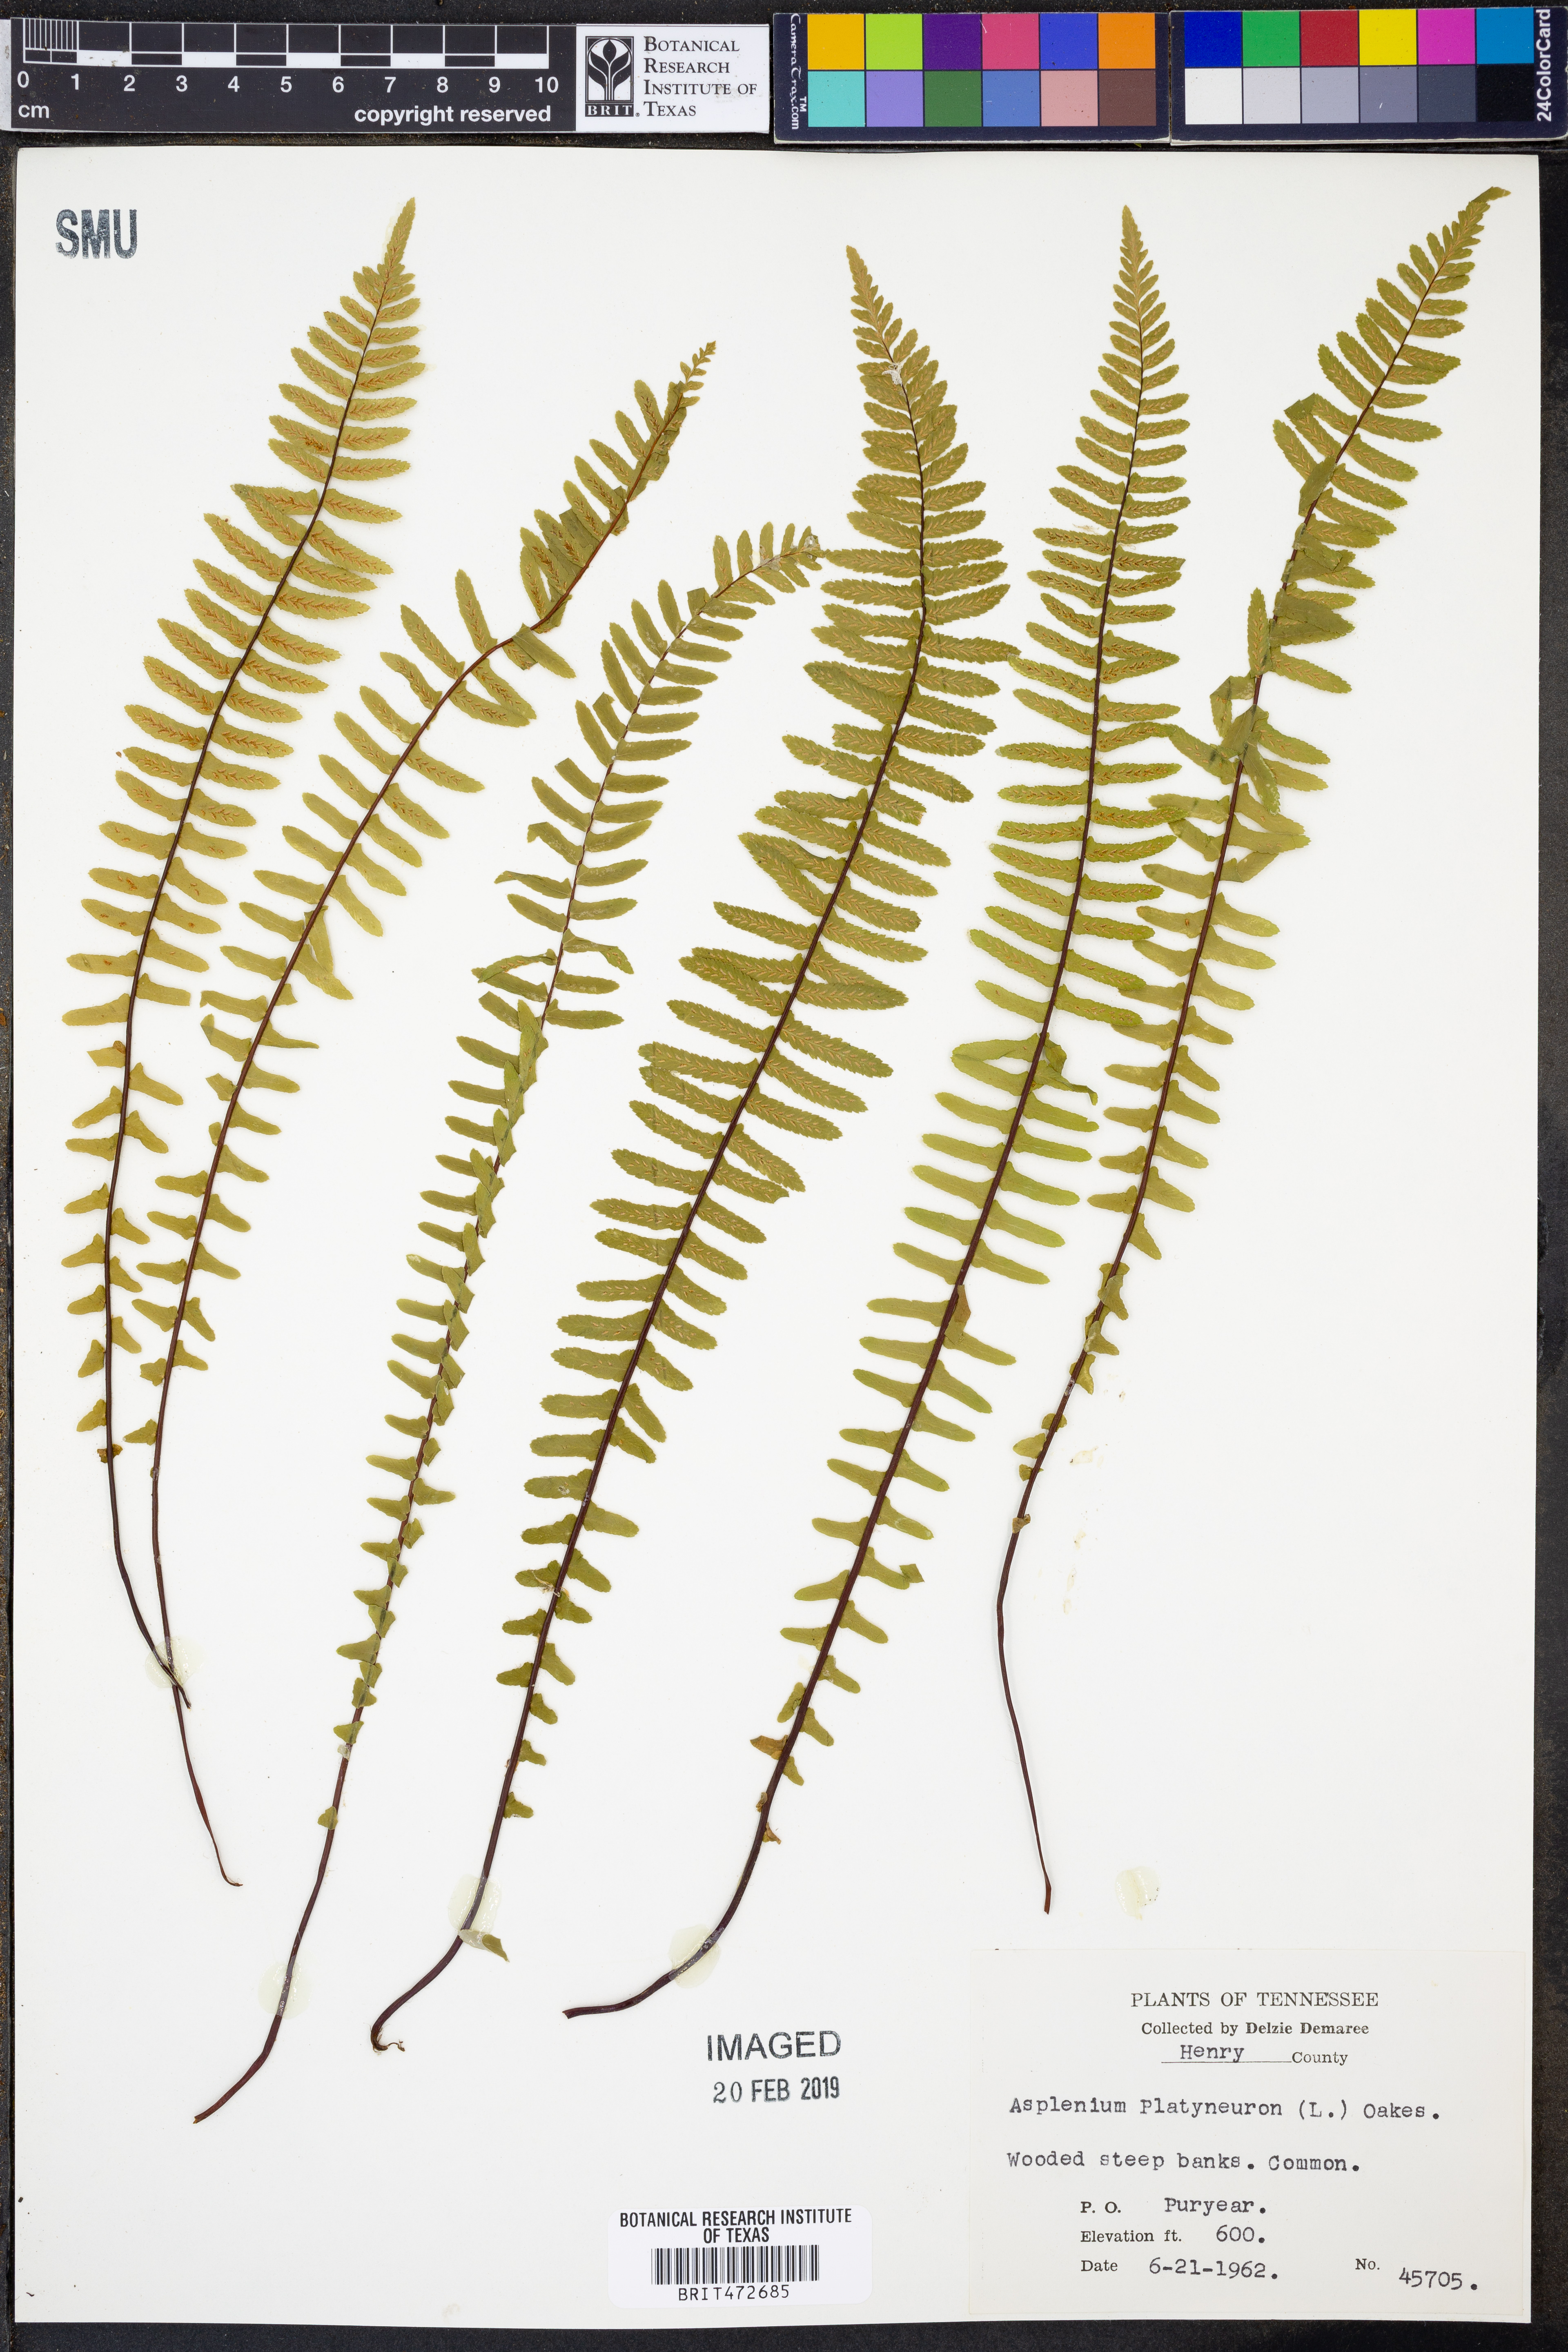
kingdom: Plantae
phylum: Tracheophyta
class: Polypodiopsida
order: Polypodiales
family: Aspleniaceae
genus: Asplenium
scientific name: Asplenium platyneuron
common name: Ebony spleenwort
